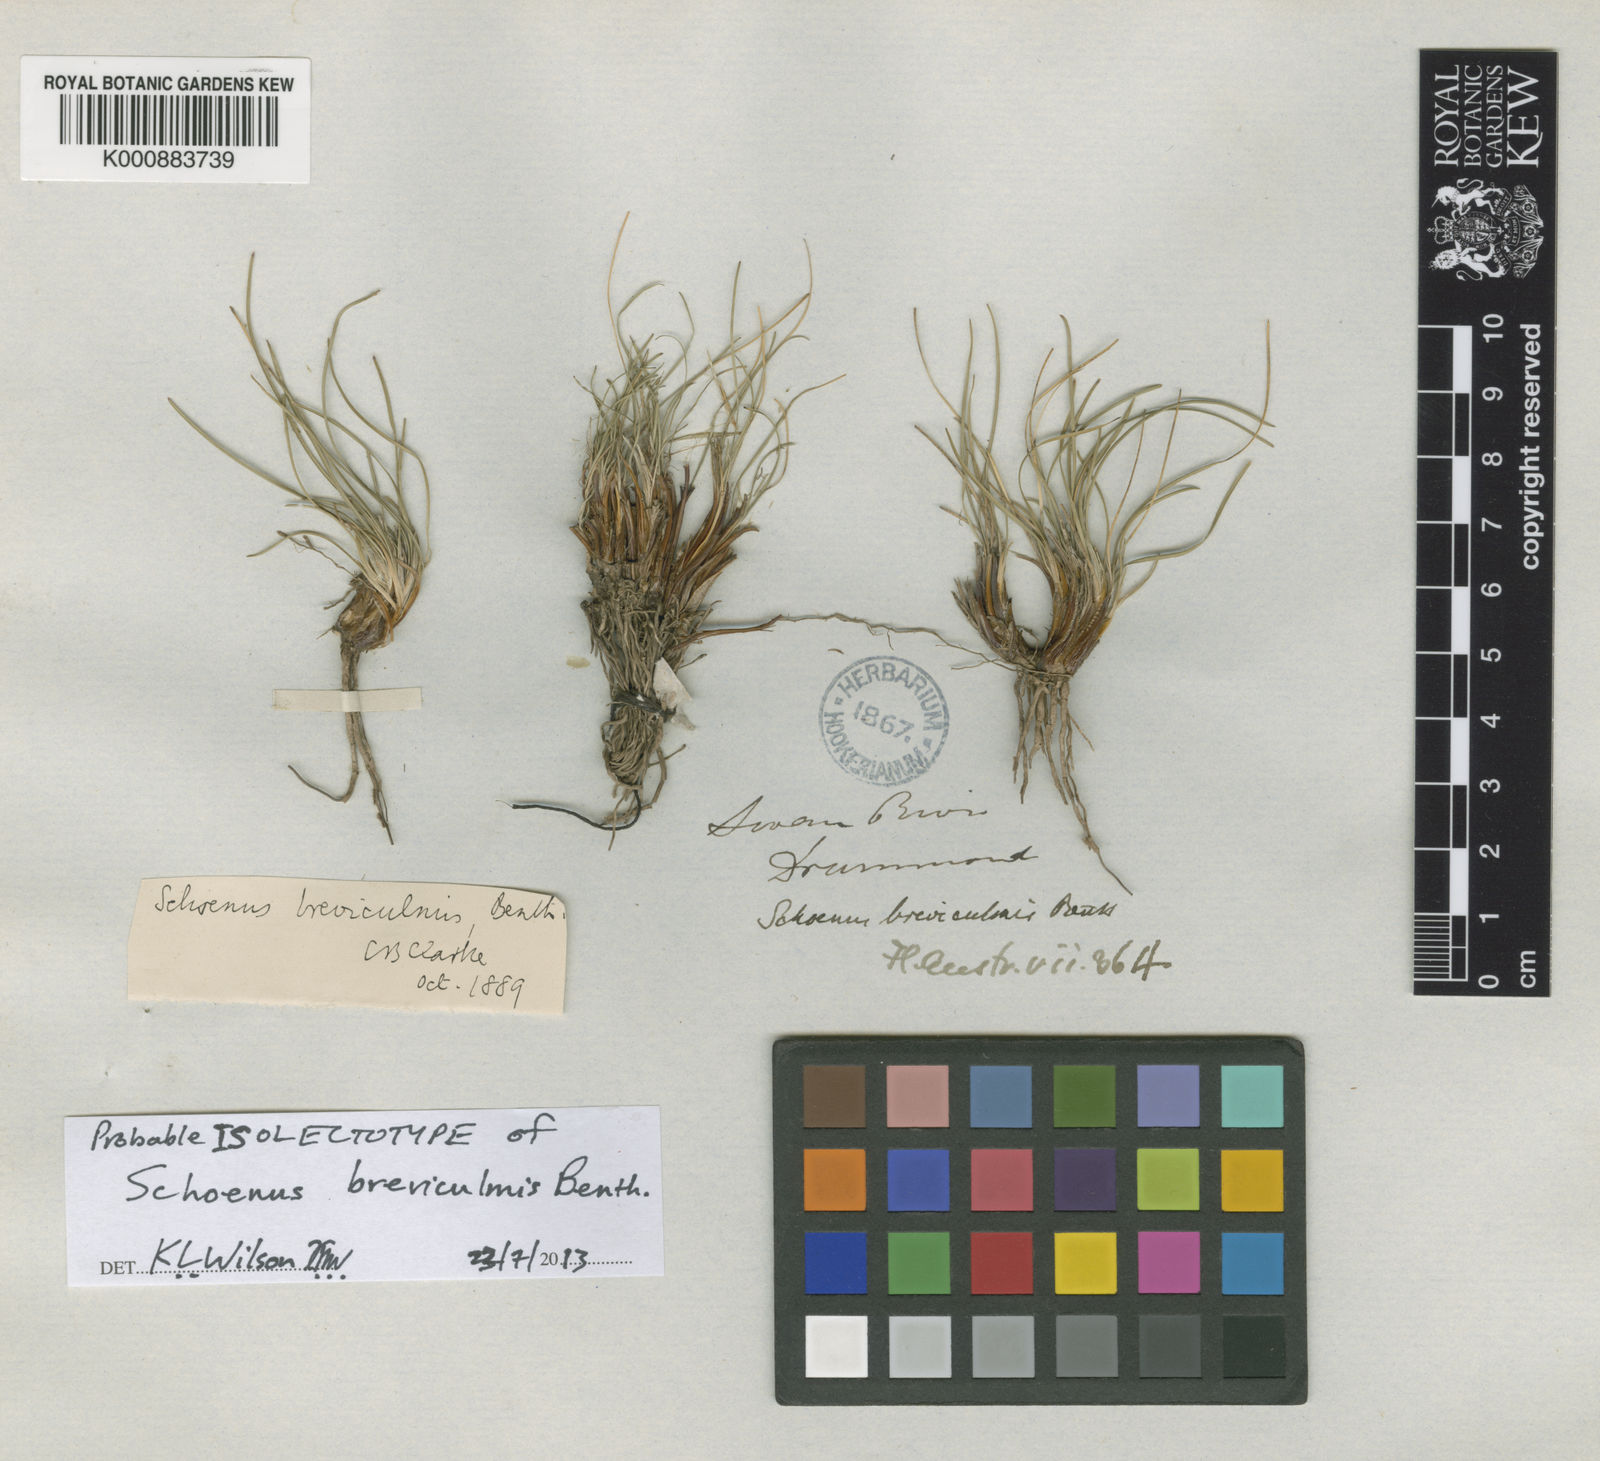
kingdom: Plantae
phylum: Tracheophyta
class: Liliopsida
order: Poales
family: Cyperaceae
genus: Schoenus
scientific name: Schoenus breviculmis
